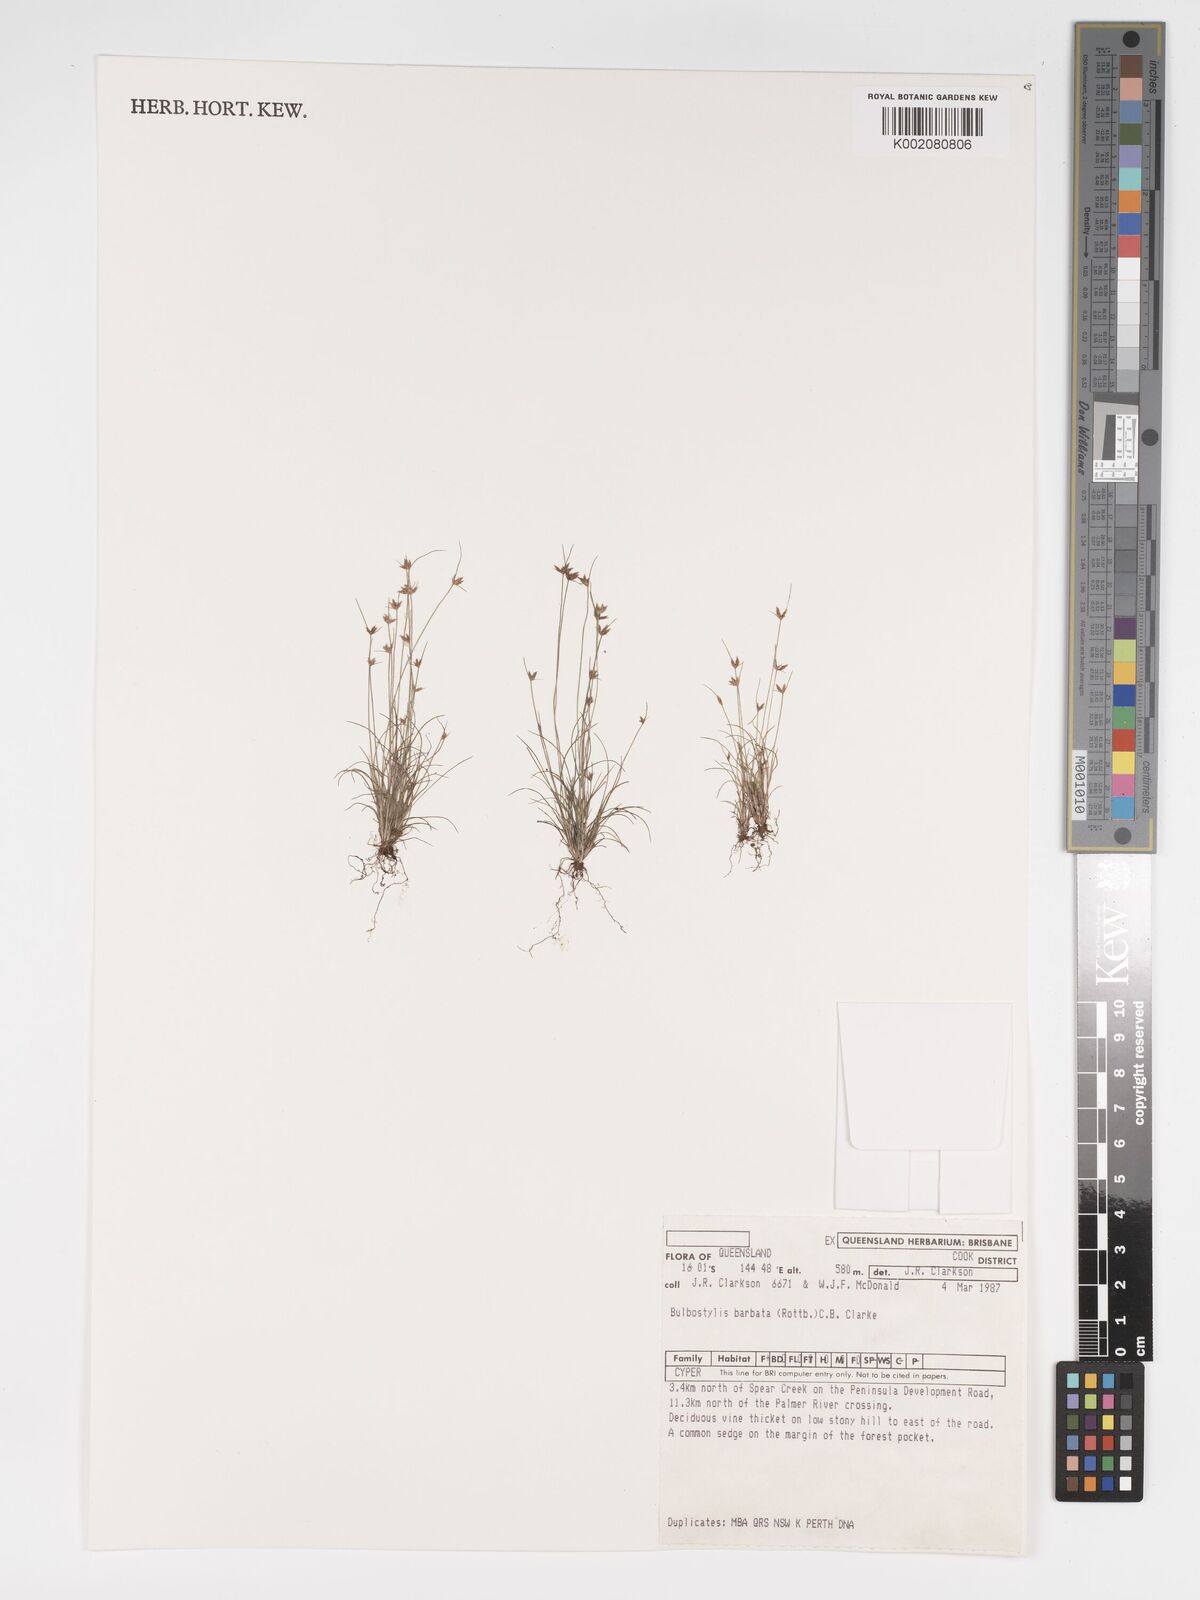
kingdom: Plantae
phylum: Tracheophyta
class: Liliopsida
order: Poales
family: Cyperaceae
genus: Bulbostylis
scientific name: Bulbostylis barbata
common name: Watergrass
